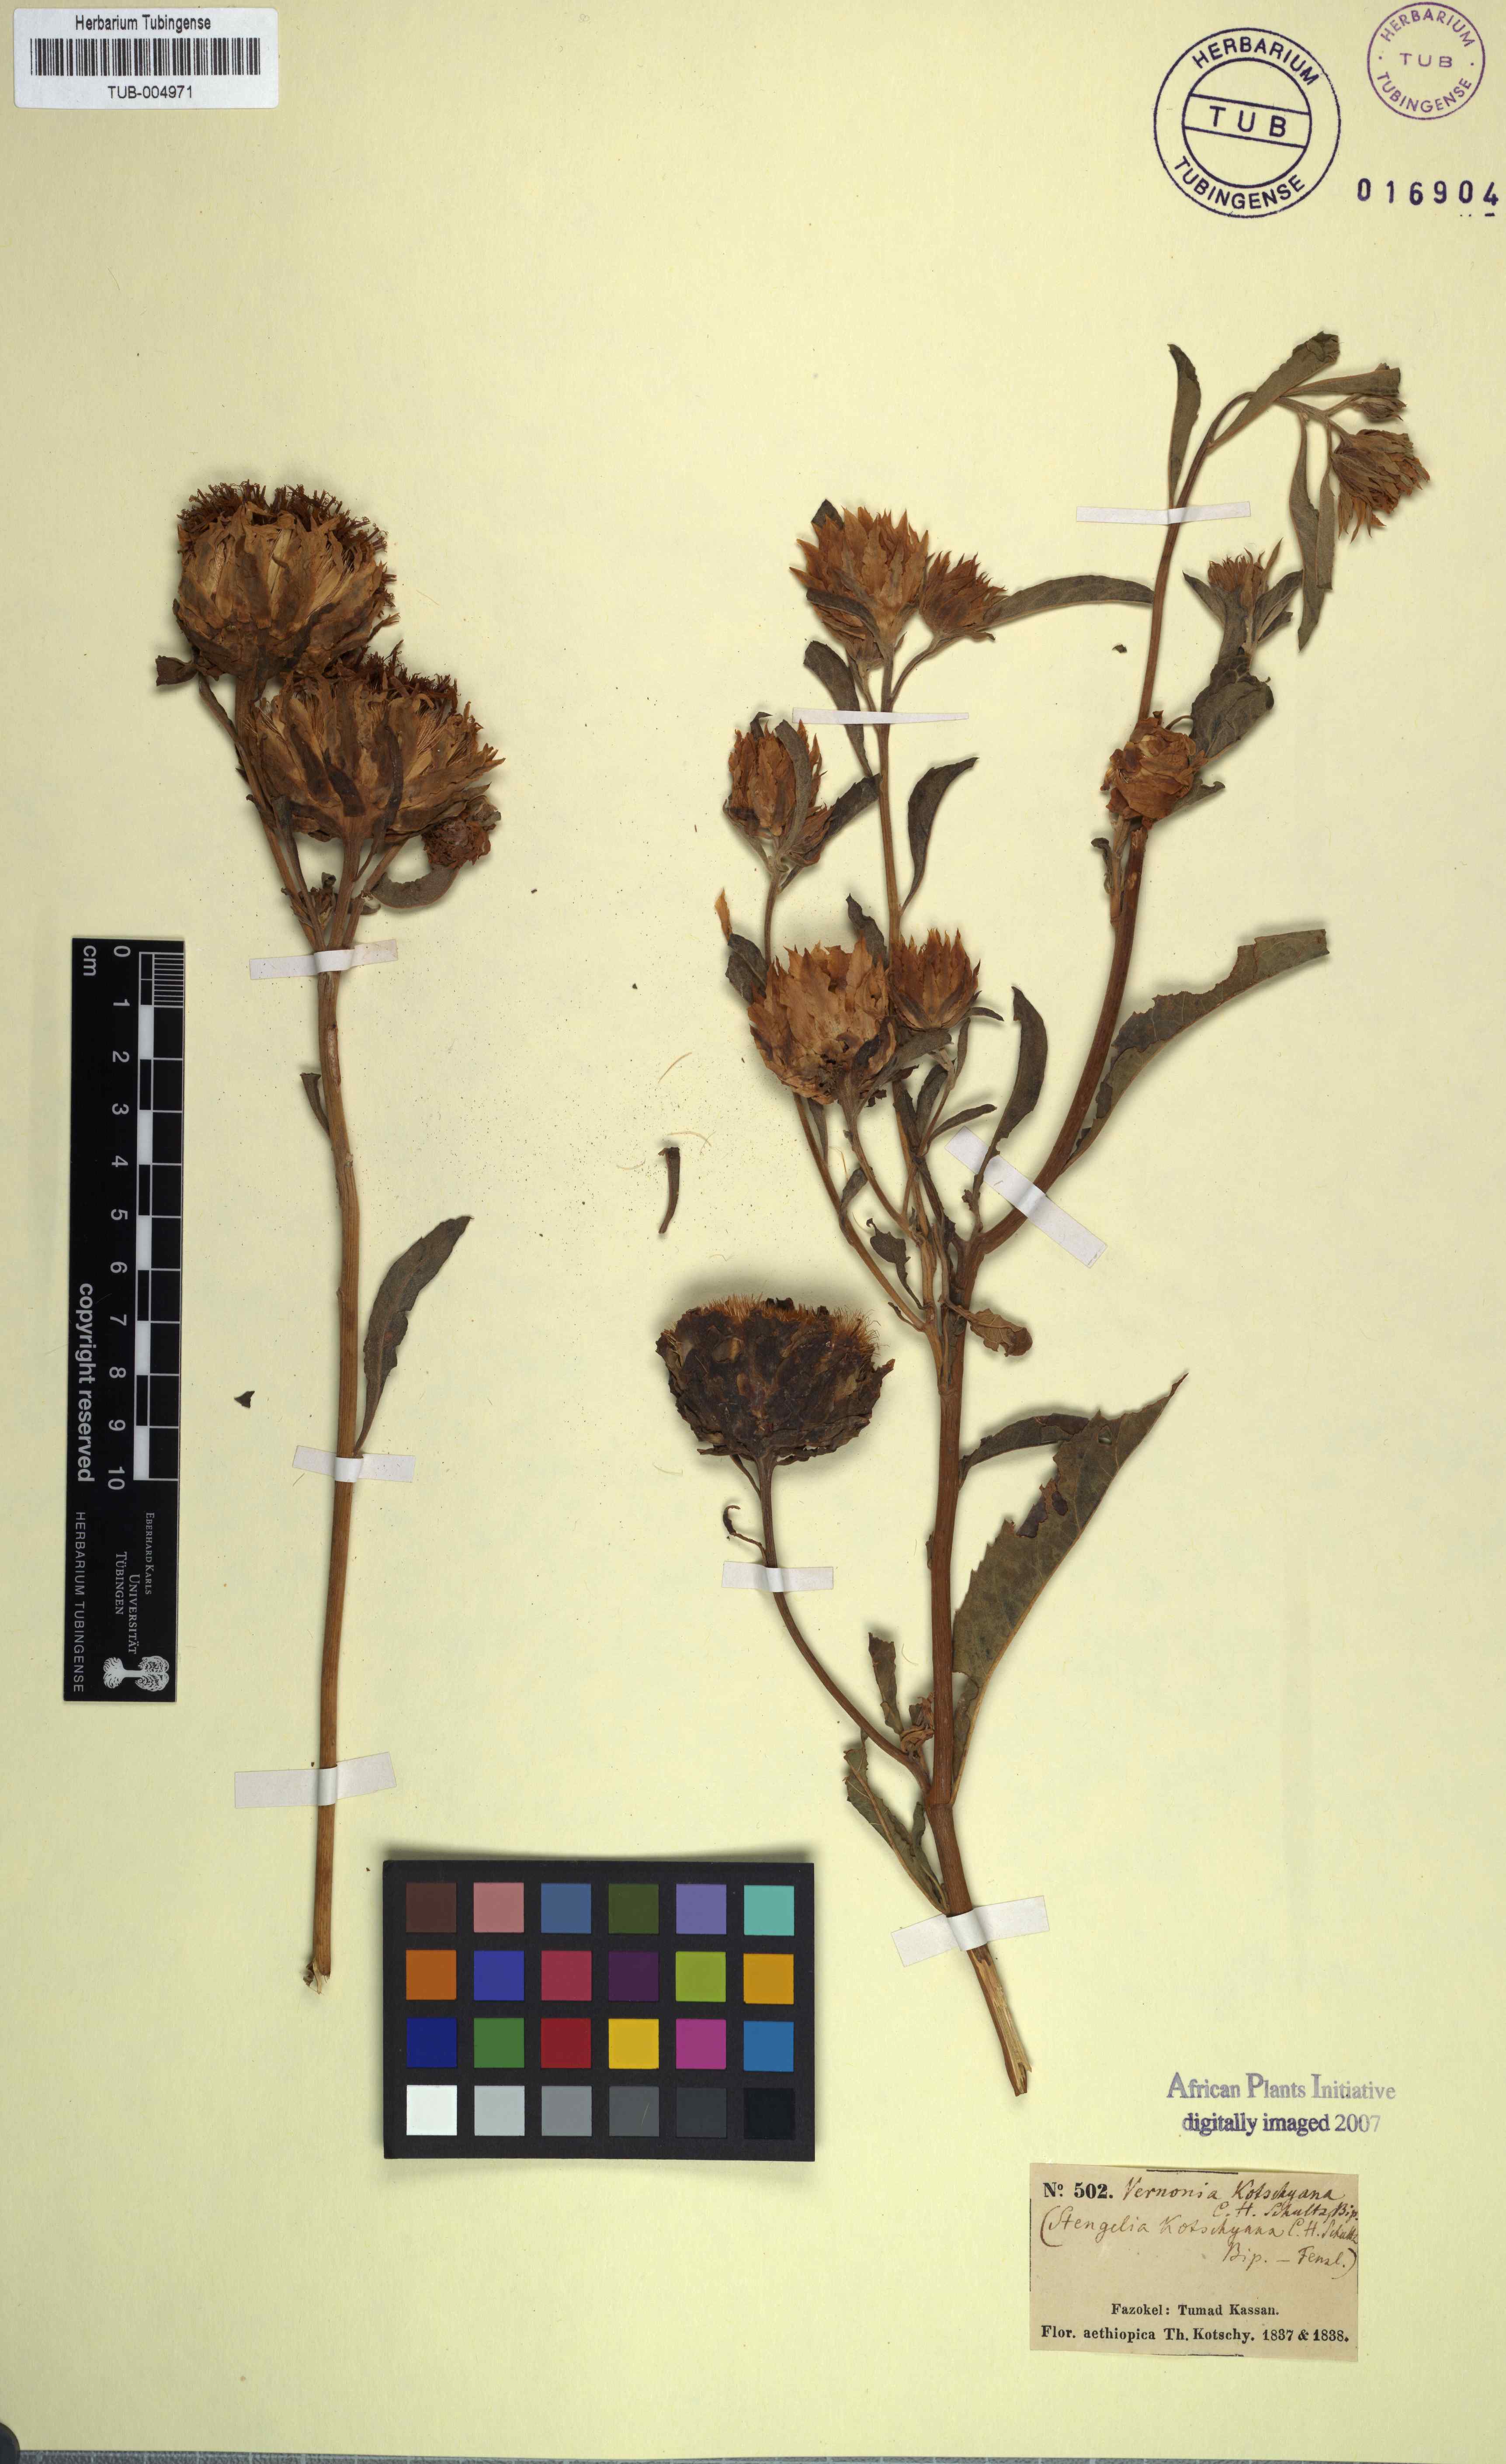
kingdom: Plantae
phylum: Tracheophyta
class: Magnoliopsida
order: Asterales
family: Asteraceae
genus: Baccharoides
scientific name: Baccharoides adoensis
